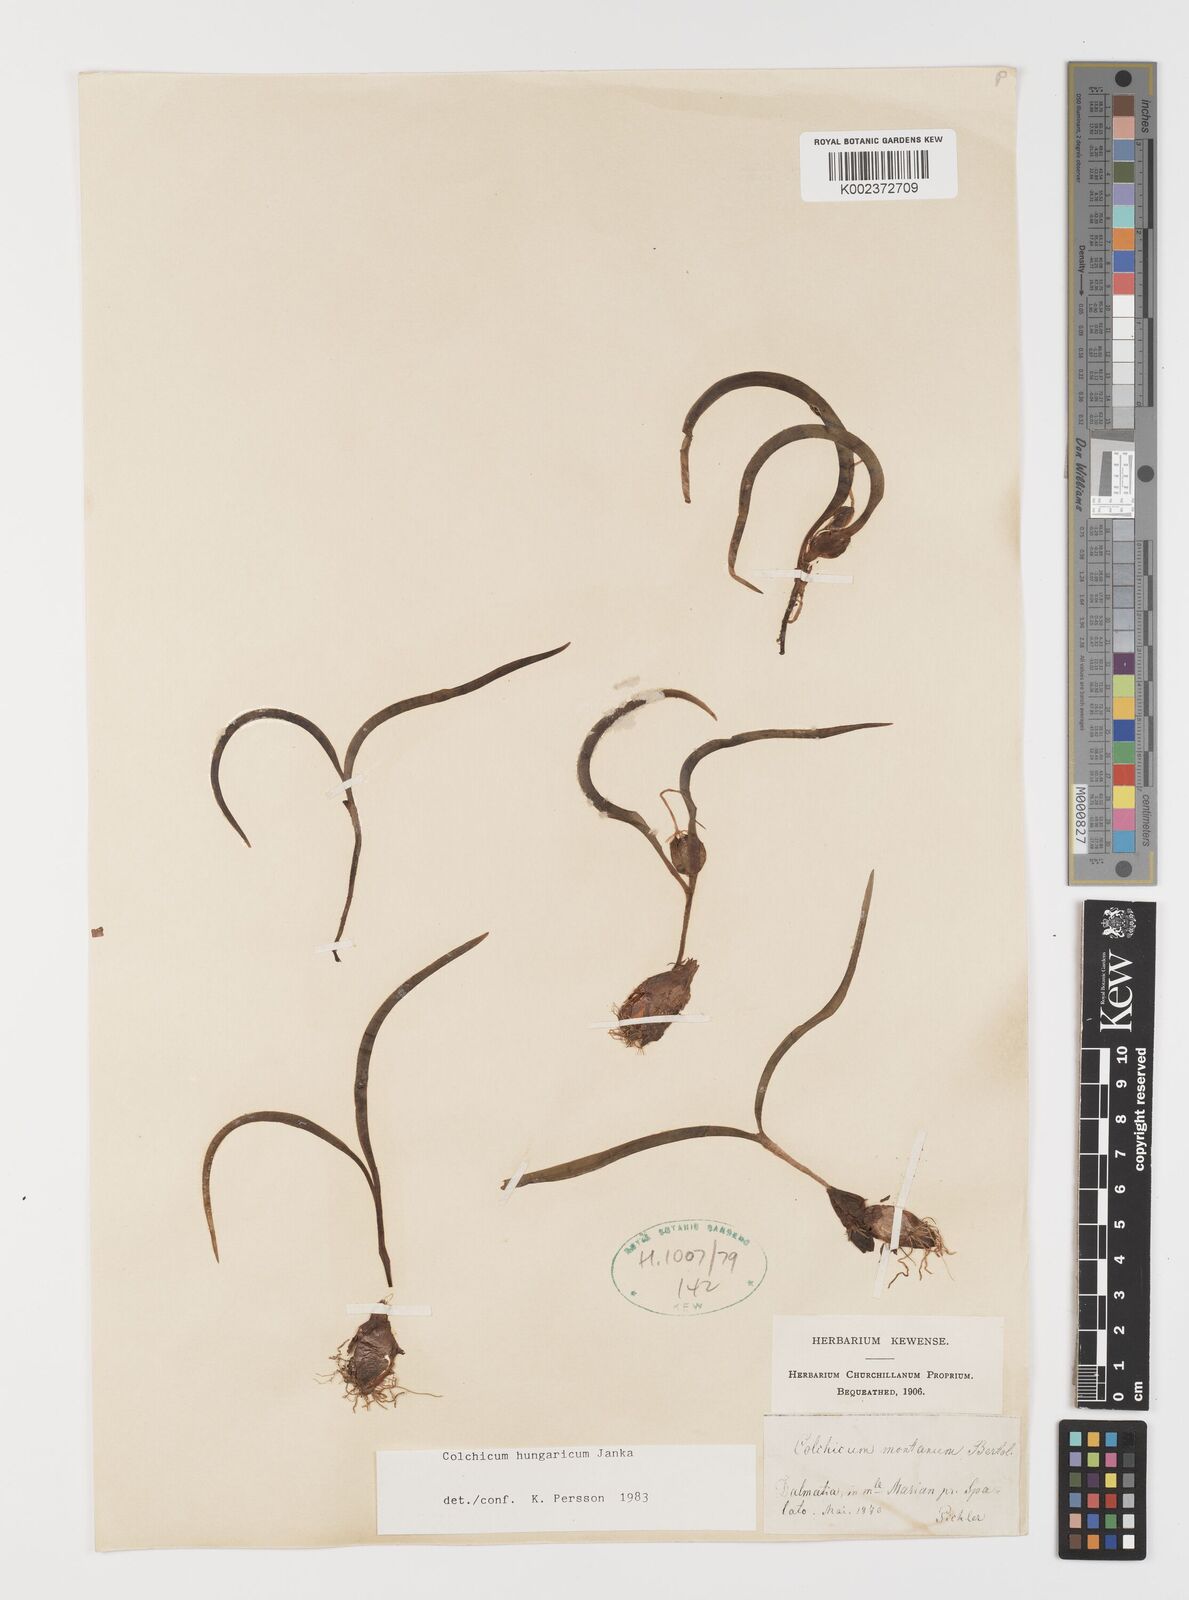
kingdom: Plantae
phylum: Tracheophyta
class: Liliopsida
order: Liliales
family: Colchicaceae
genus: Colchicum
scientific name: Colchicum hungaricum
